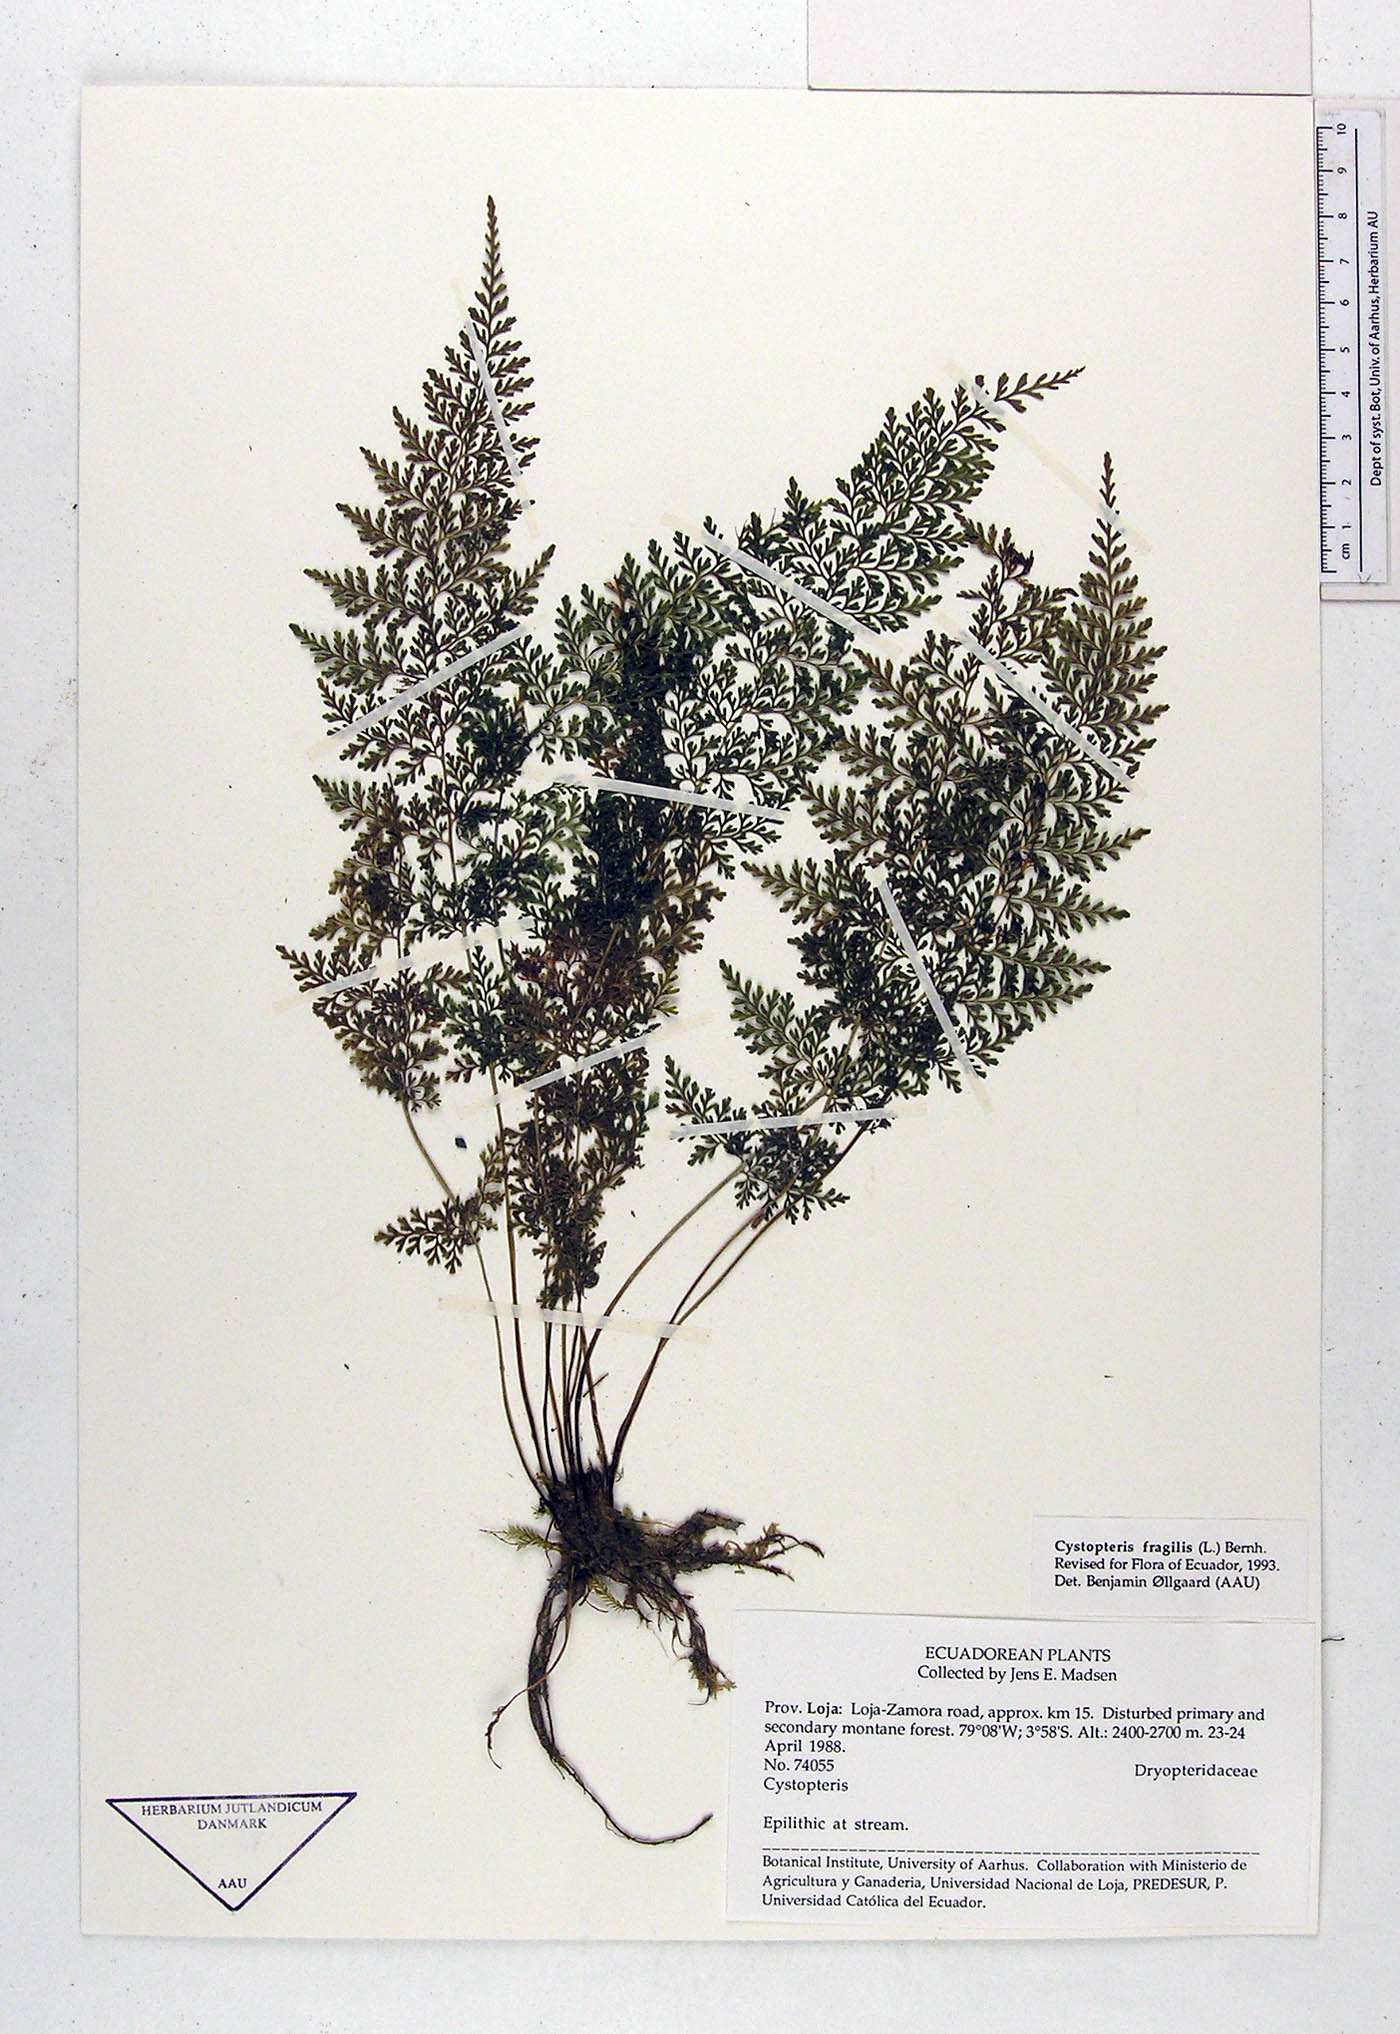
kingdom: Plantae
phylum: Tracheophyta
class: Polypodiopsida
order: Polypodiales
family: Cystopteridaceae
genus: Cystopteris
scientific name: Cystopteris fragilis
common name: Brittle bladder fern
